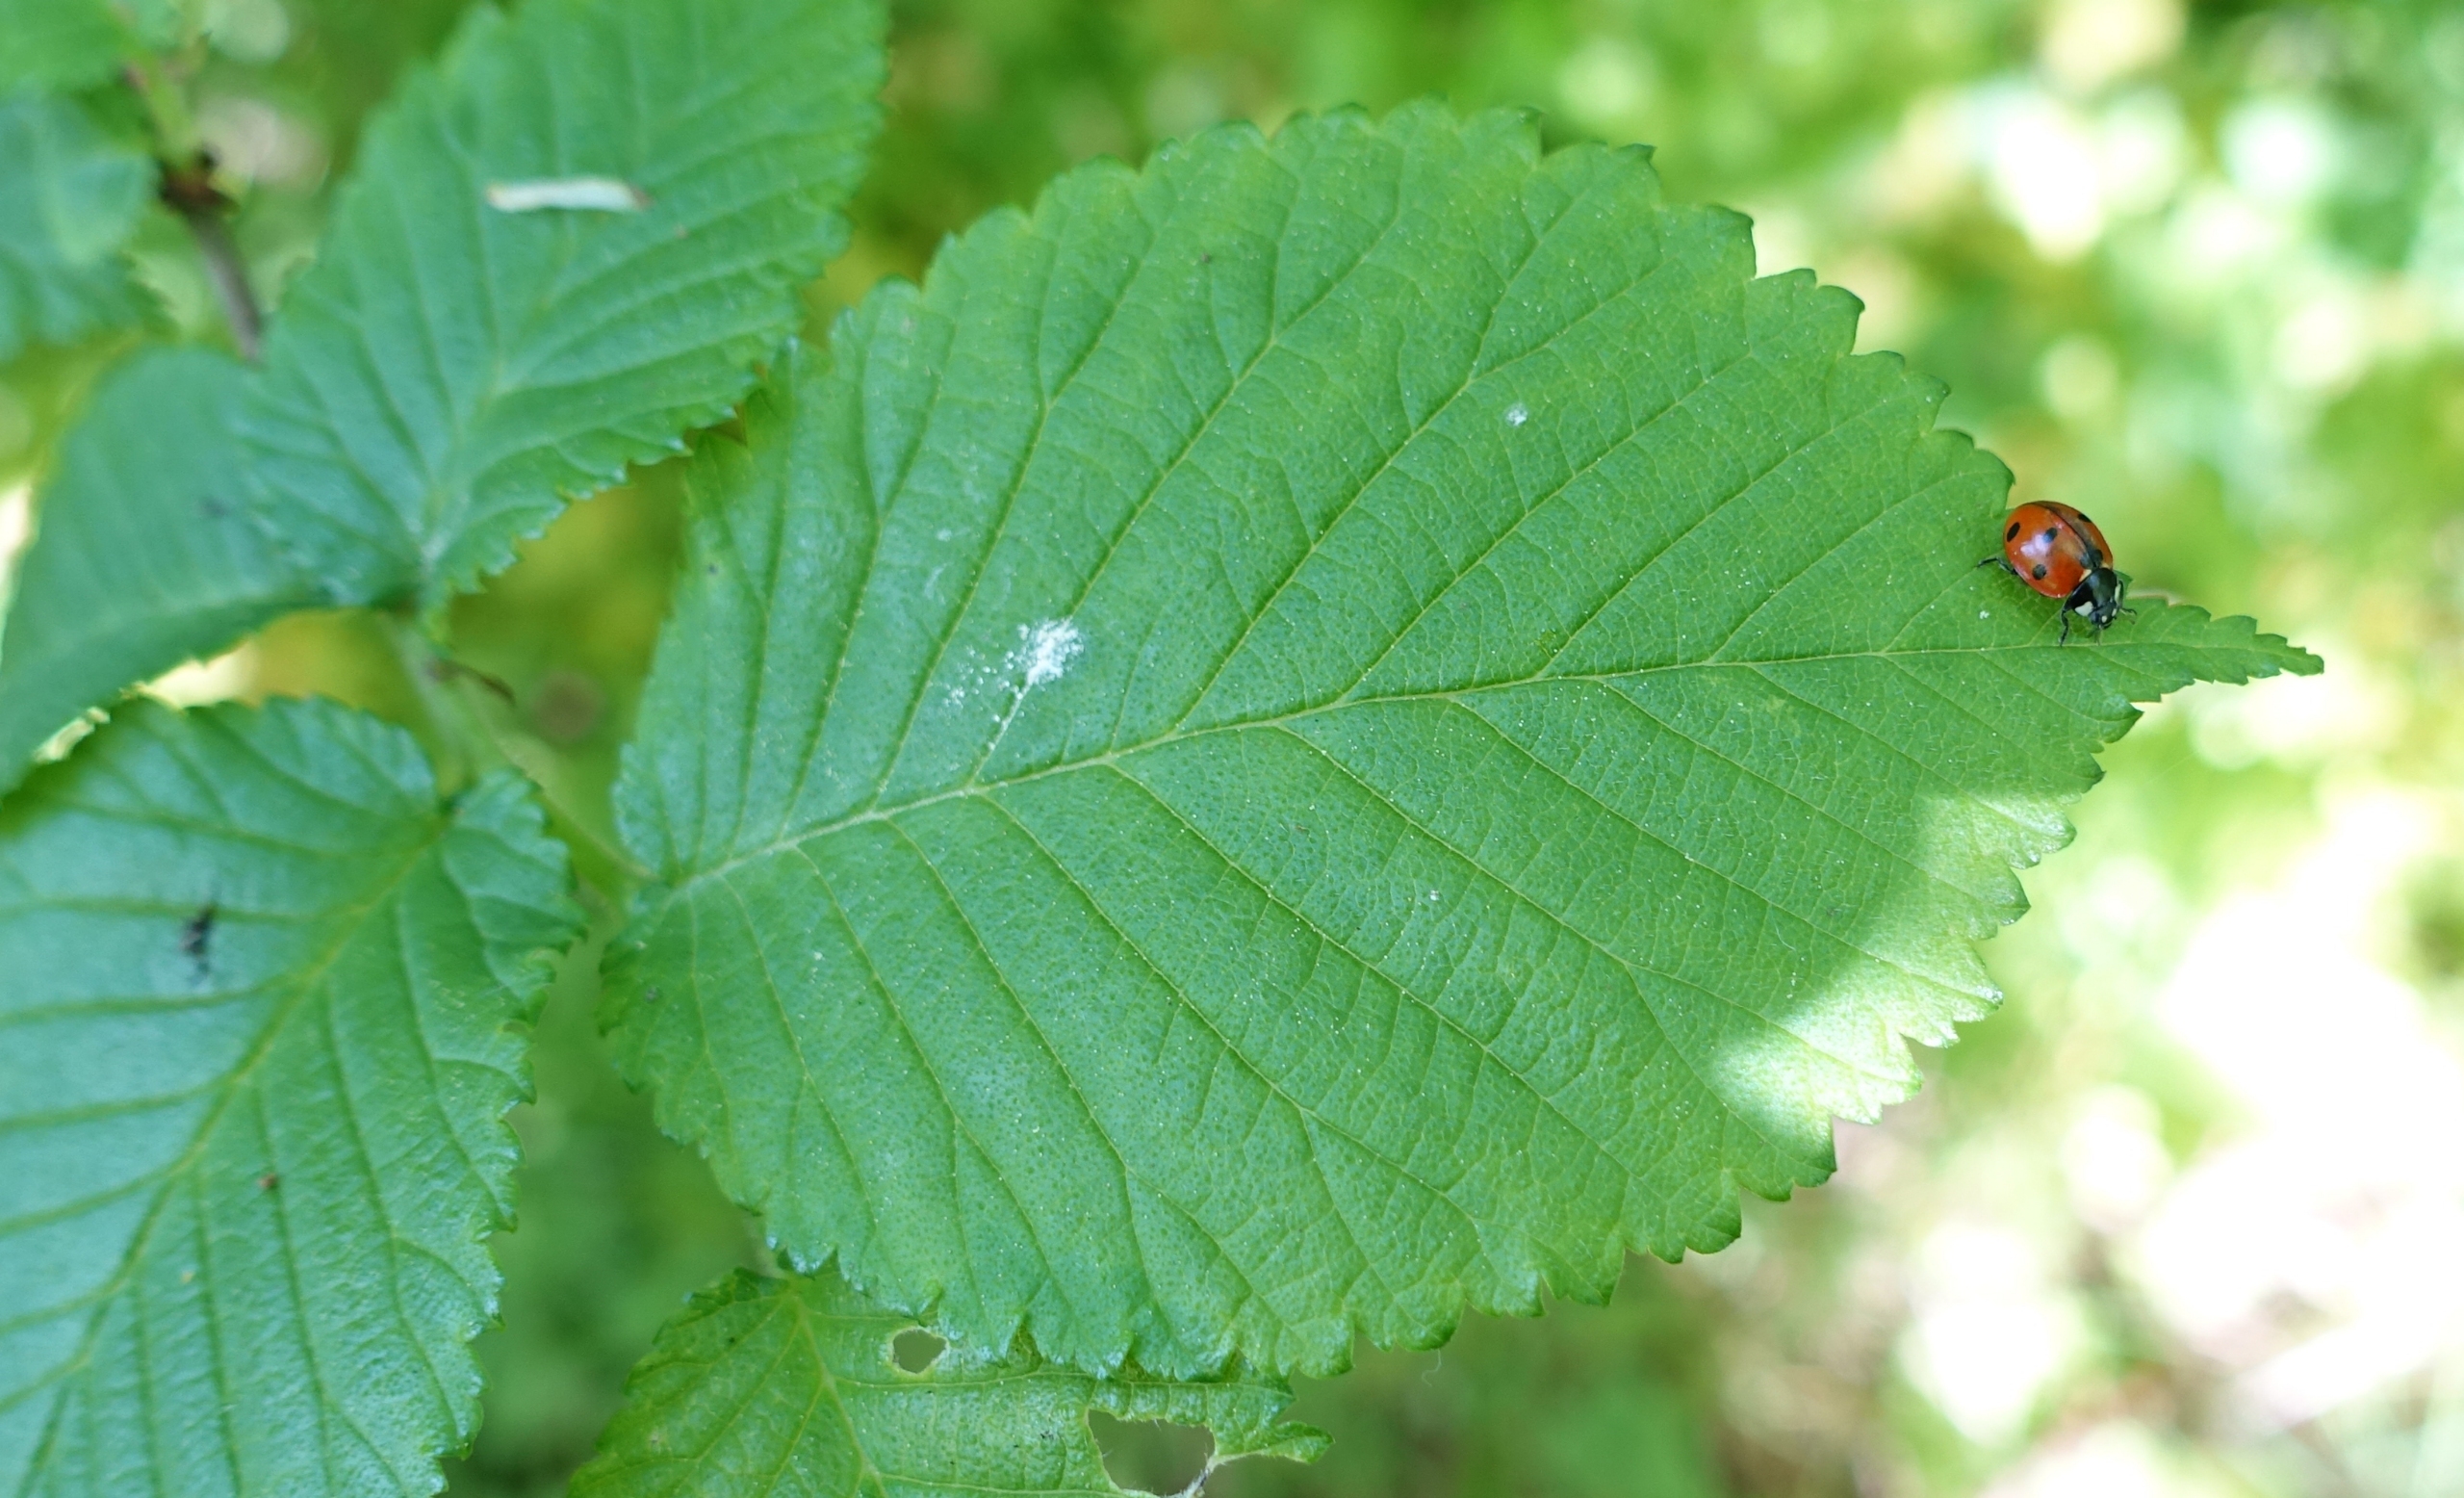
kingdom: Animalia
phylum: Arthropoda
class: Insecta
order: Coleoptera
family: Coccinellidae
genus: Coccinella
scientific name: Coccinella septempunctata
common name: Syvplettet mariehøne
